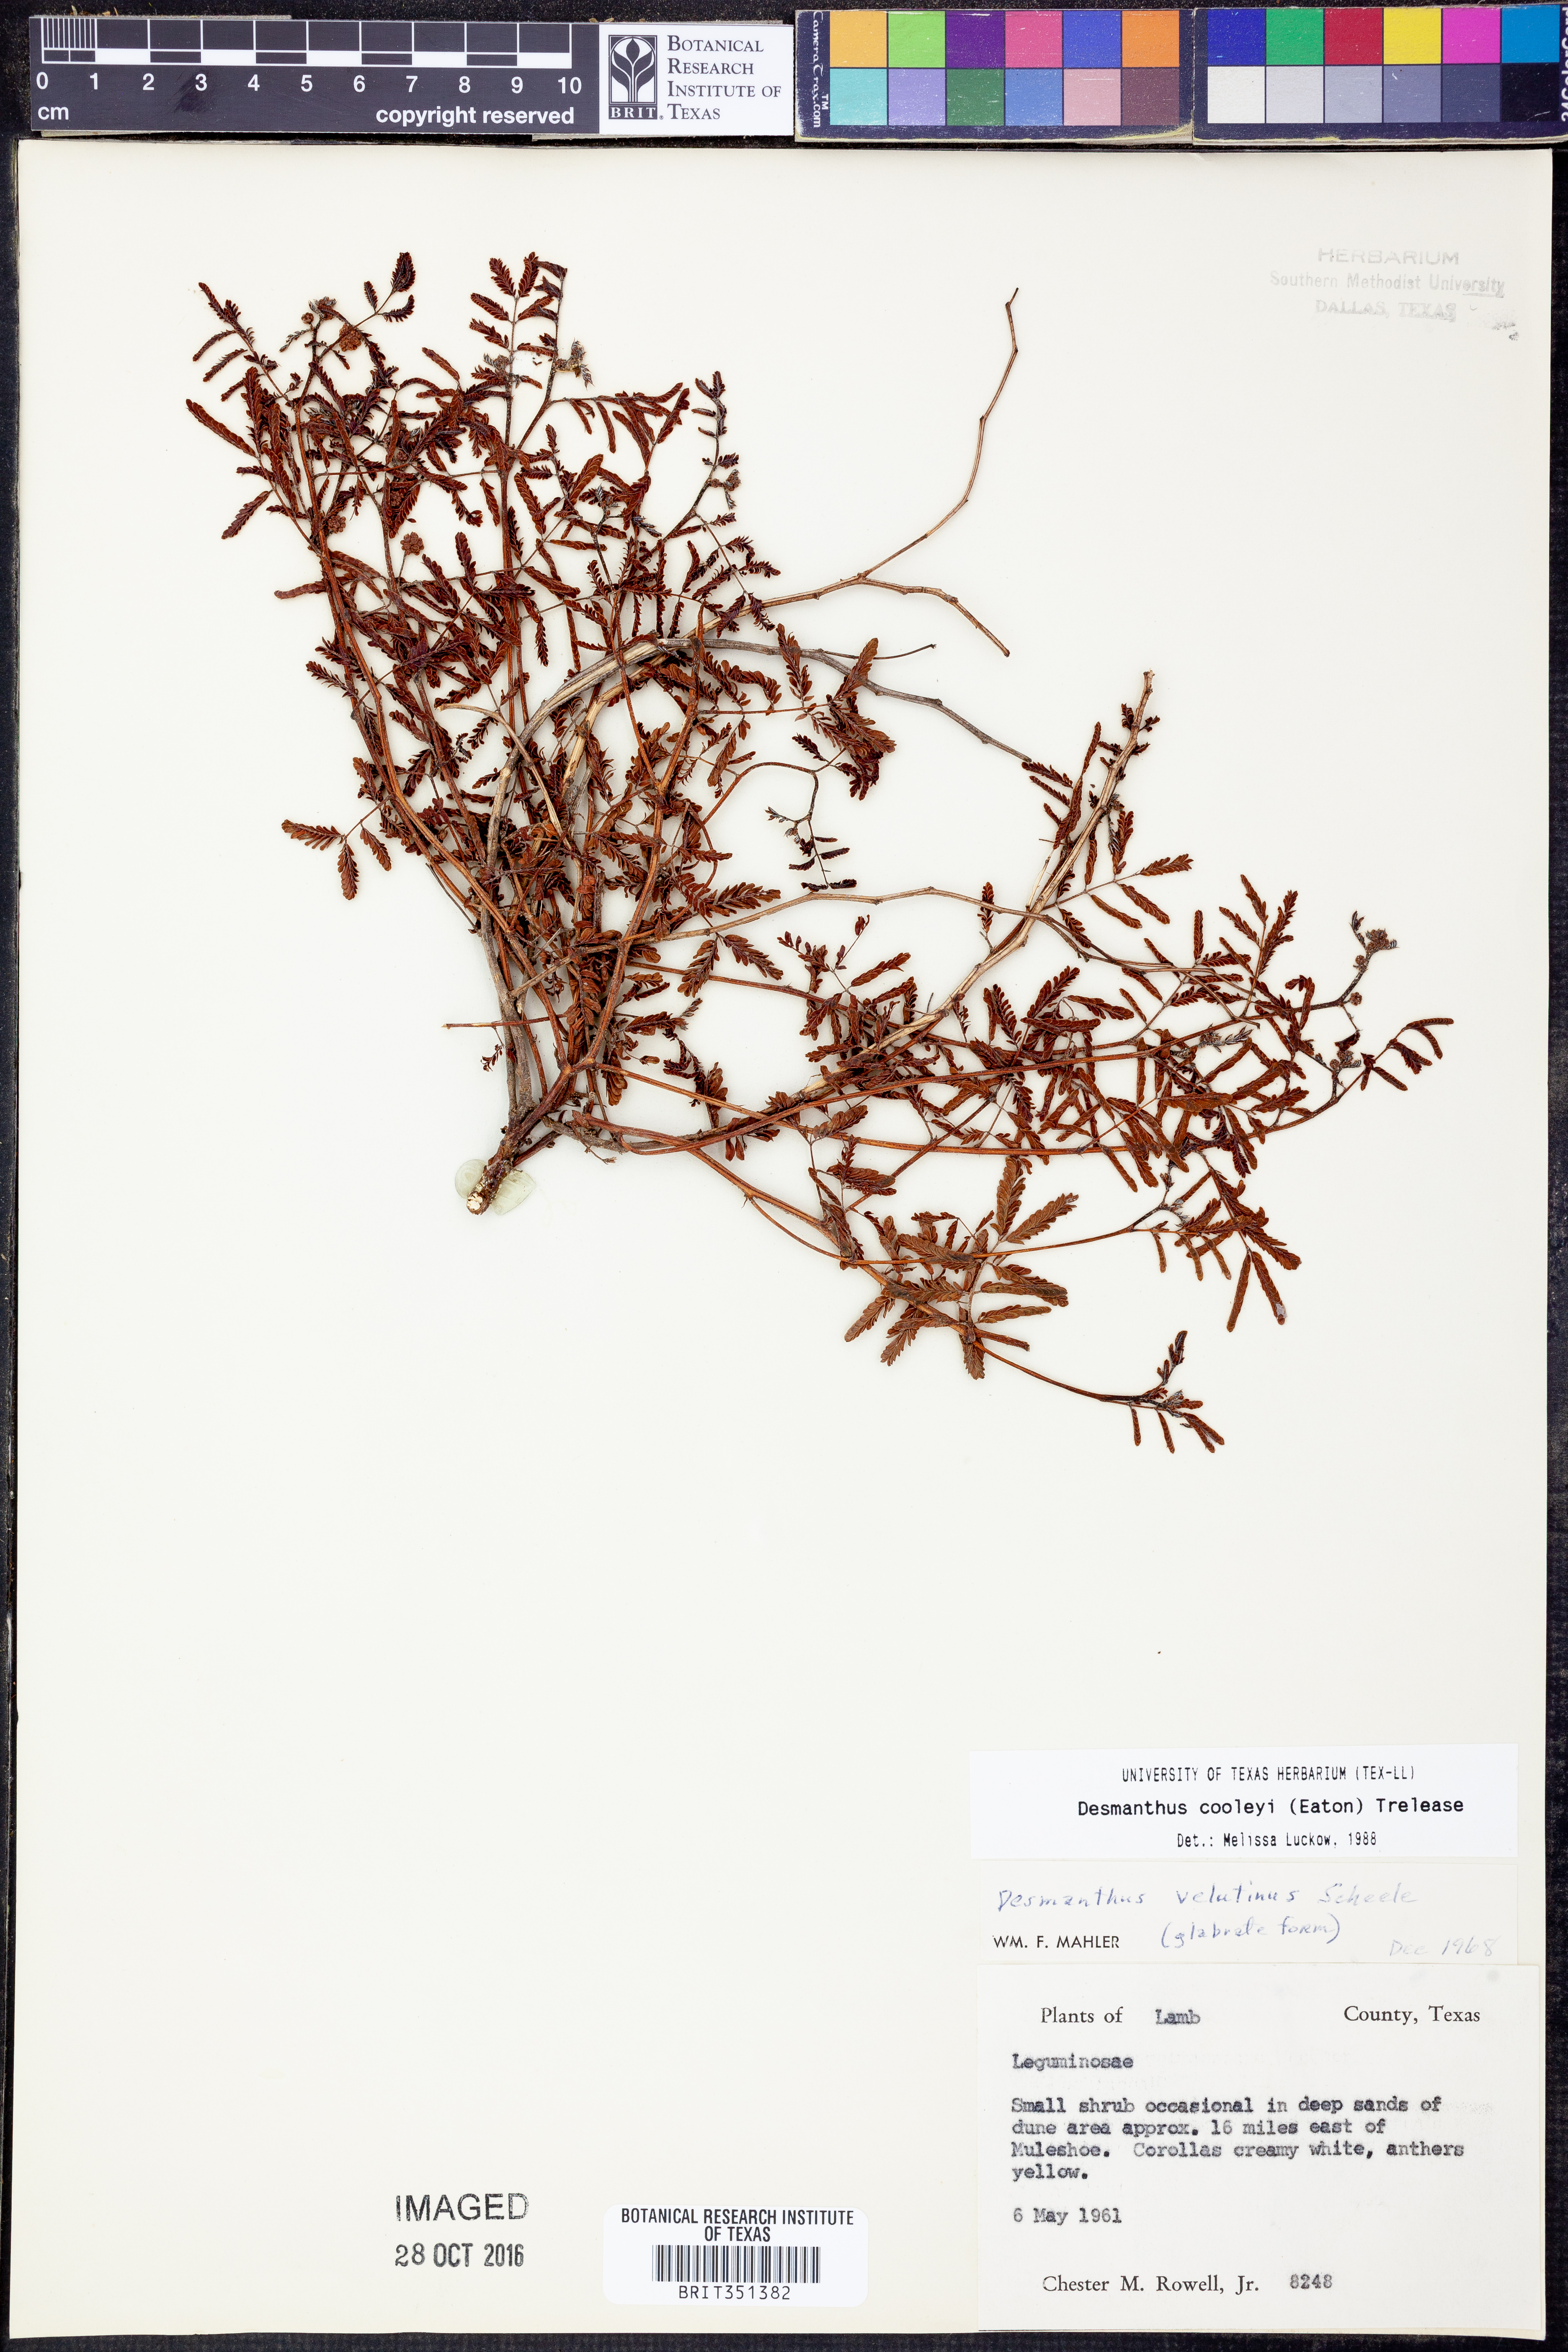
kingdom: Plantae
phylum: Tracheophyta
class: Magnoliopsida
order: Fabales
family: Fabaceae
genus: Desmanthus
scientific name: Desmanthus cooleyi
